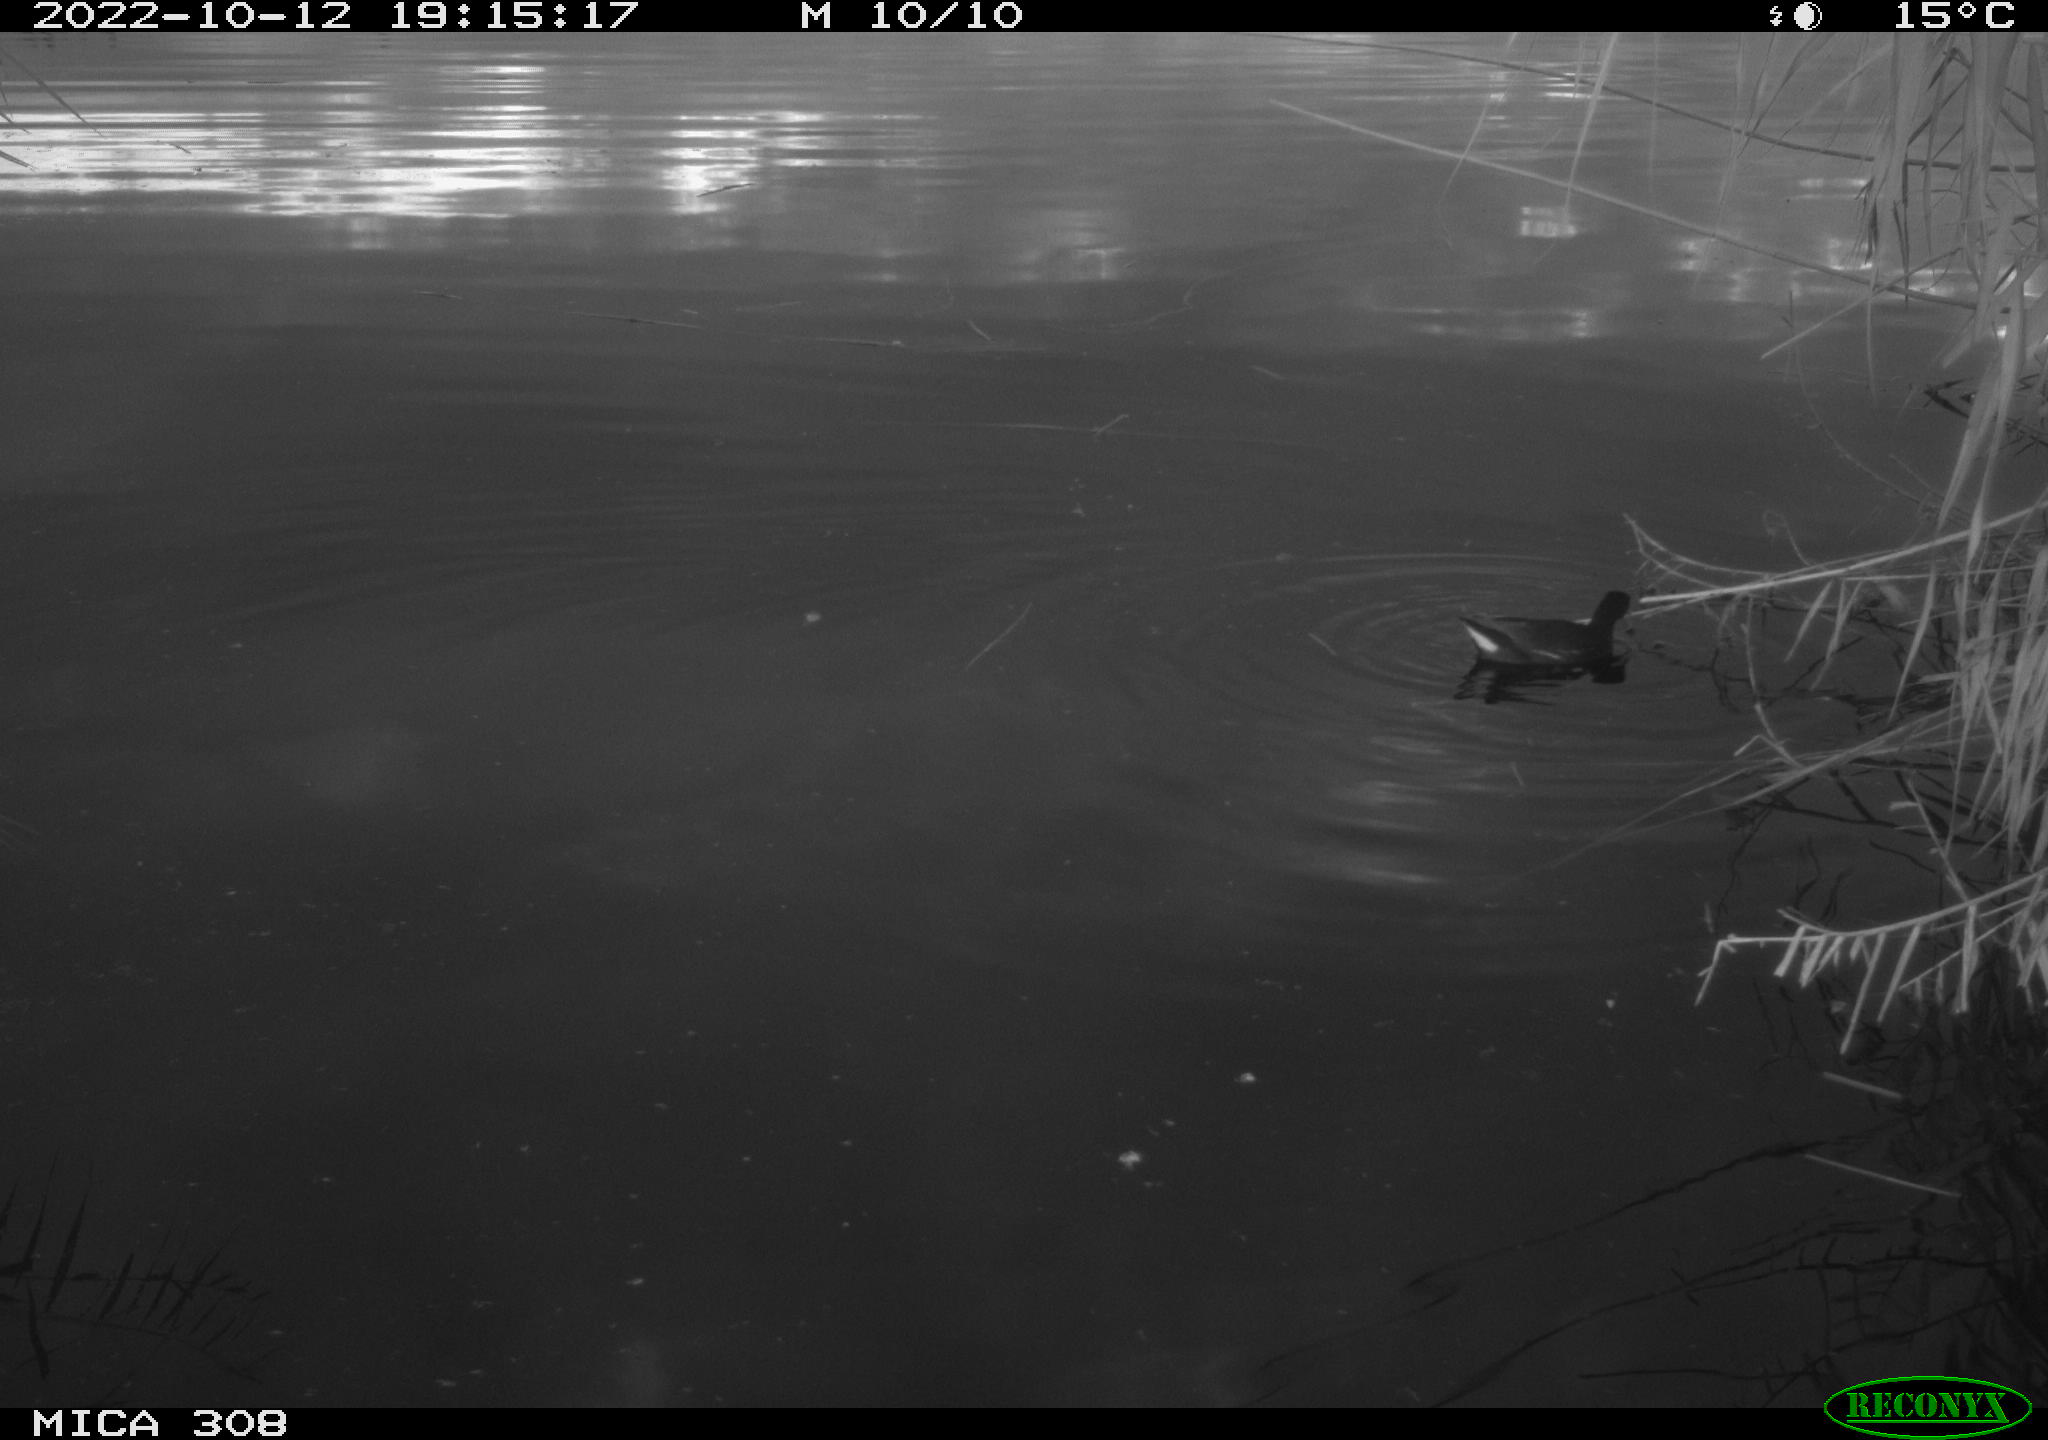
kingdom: Animalia
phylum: Chordata
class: Aves
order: Gruiformes
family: Rallidae
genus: Gallinula
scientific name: Gallinula chloropus
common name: Common moorhen
